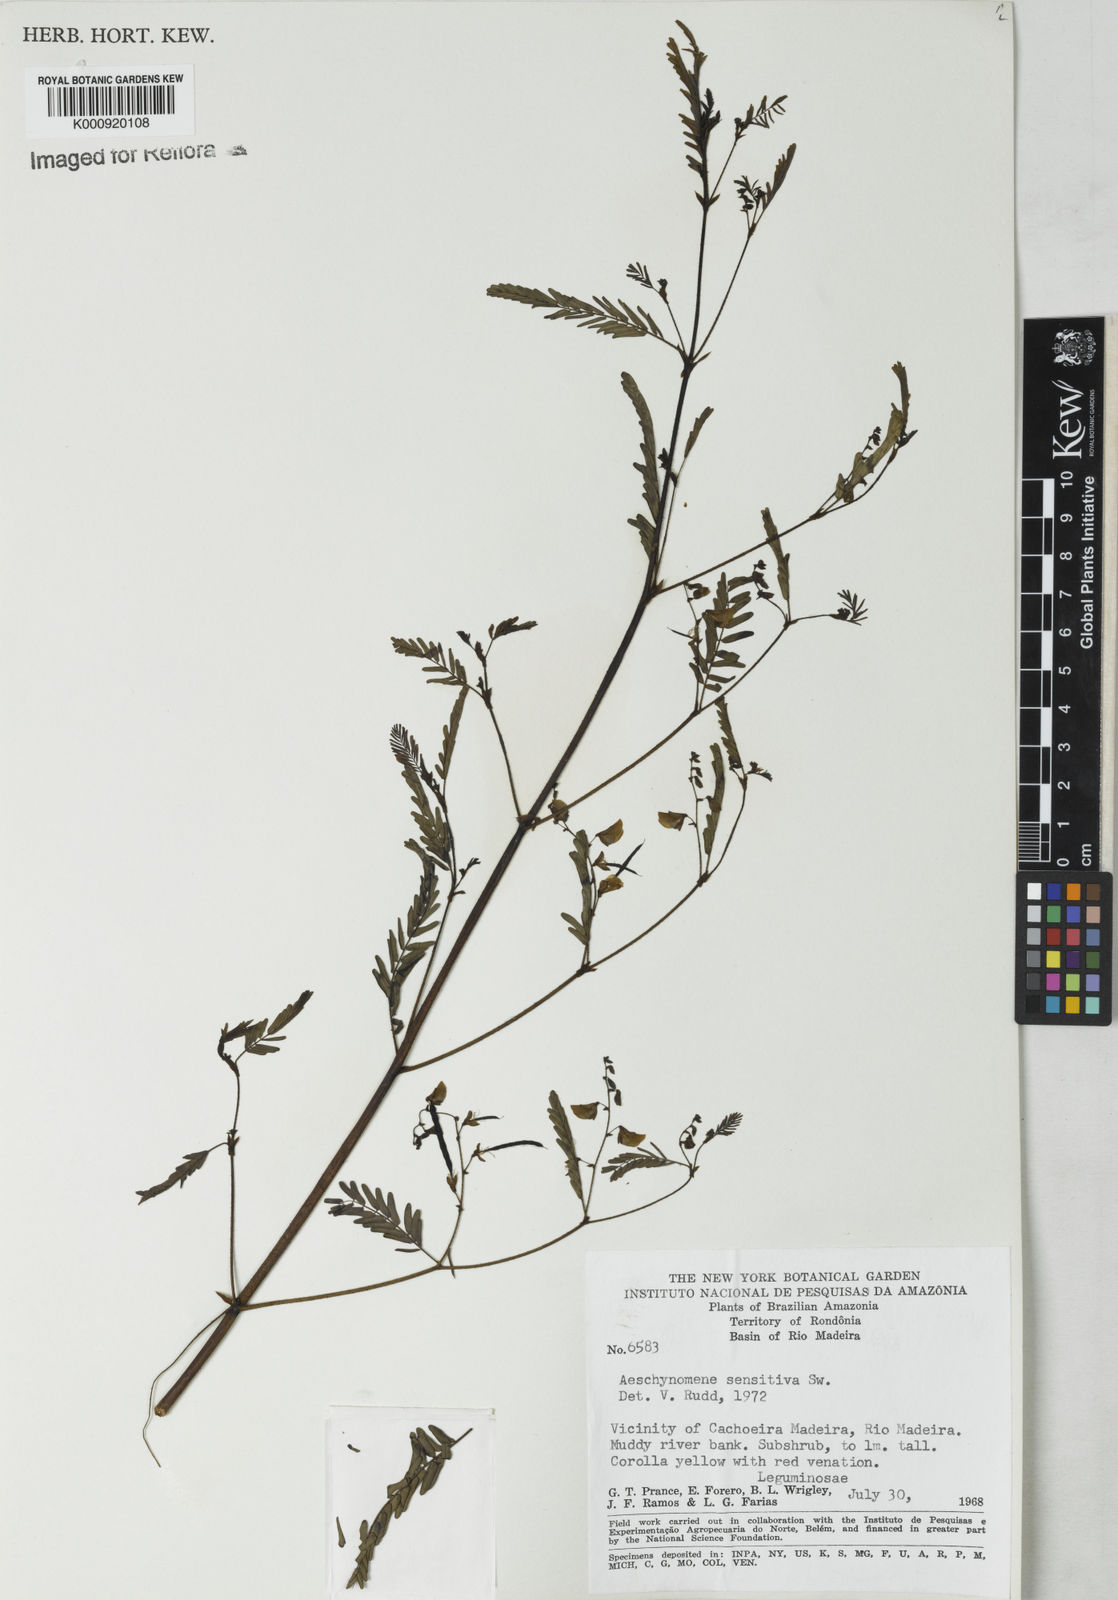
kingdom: Plantae
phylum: Tracheophyta
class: Magnoliopsida
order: Fabales
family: Fabaceae
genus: Aeschynomene
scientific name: Aeschynomene sensitiva
